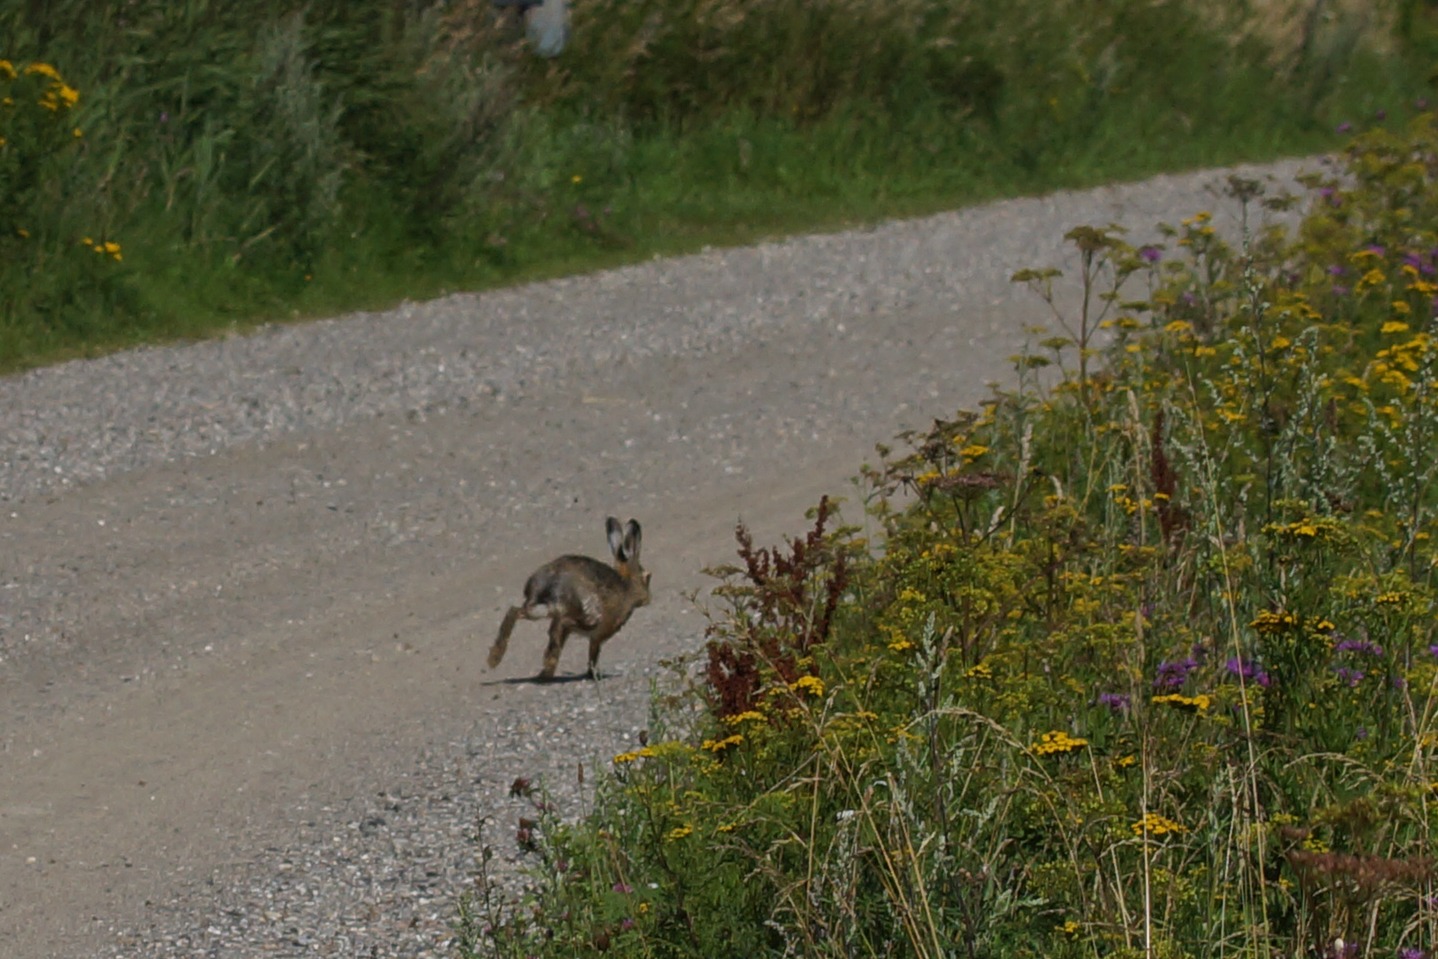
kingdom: Animalia
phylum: Chordata
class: Mammalia
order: Lagomorpha
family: Leporidae
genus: Lepus
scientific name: Lepus europaeus
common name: Hare
